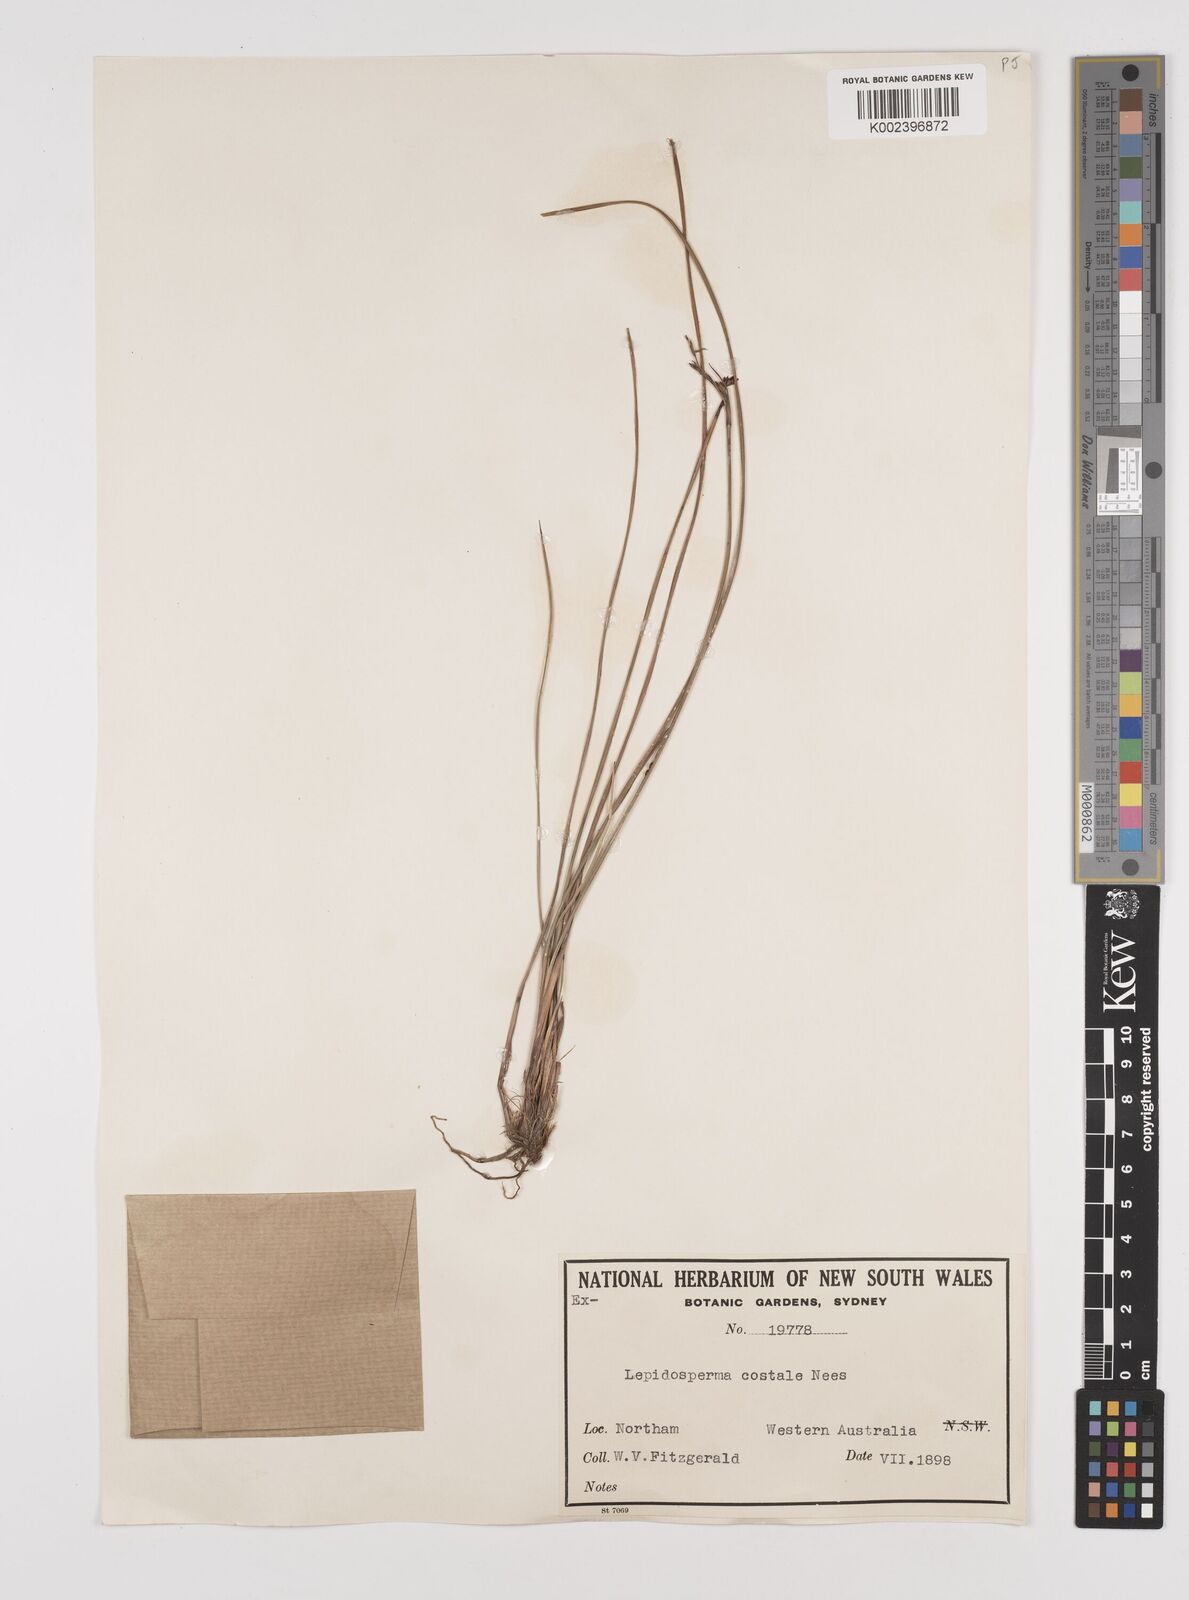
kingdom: Plantae
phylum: Tracheophyta
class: Liliopsida
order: Poales
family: Cyperaceae
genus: Lepidosperma
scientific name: Lepidosperma costale
